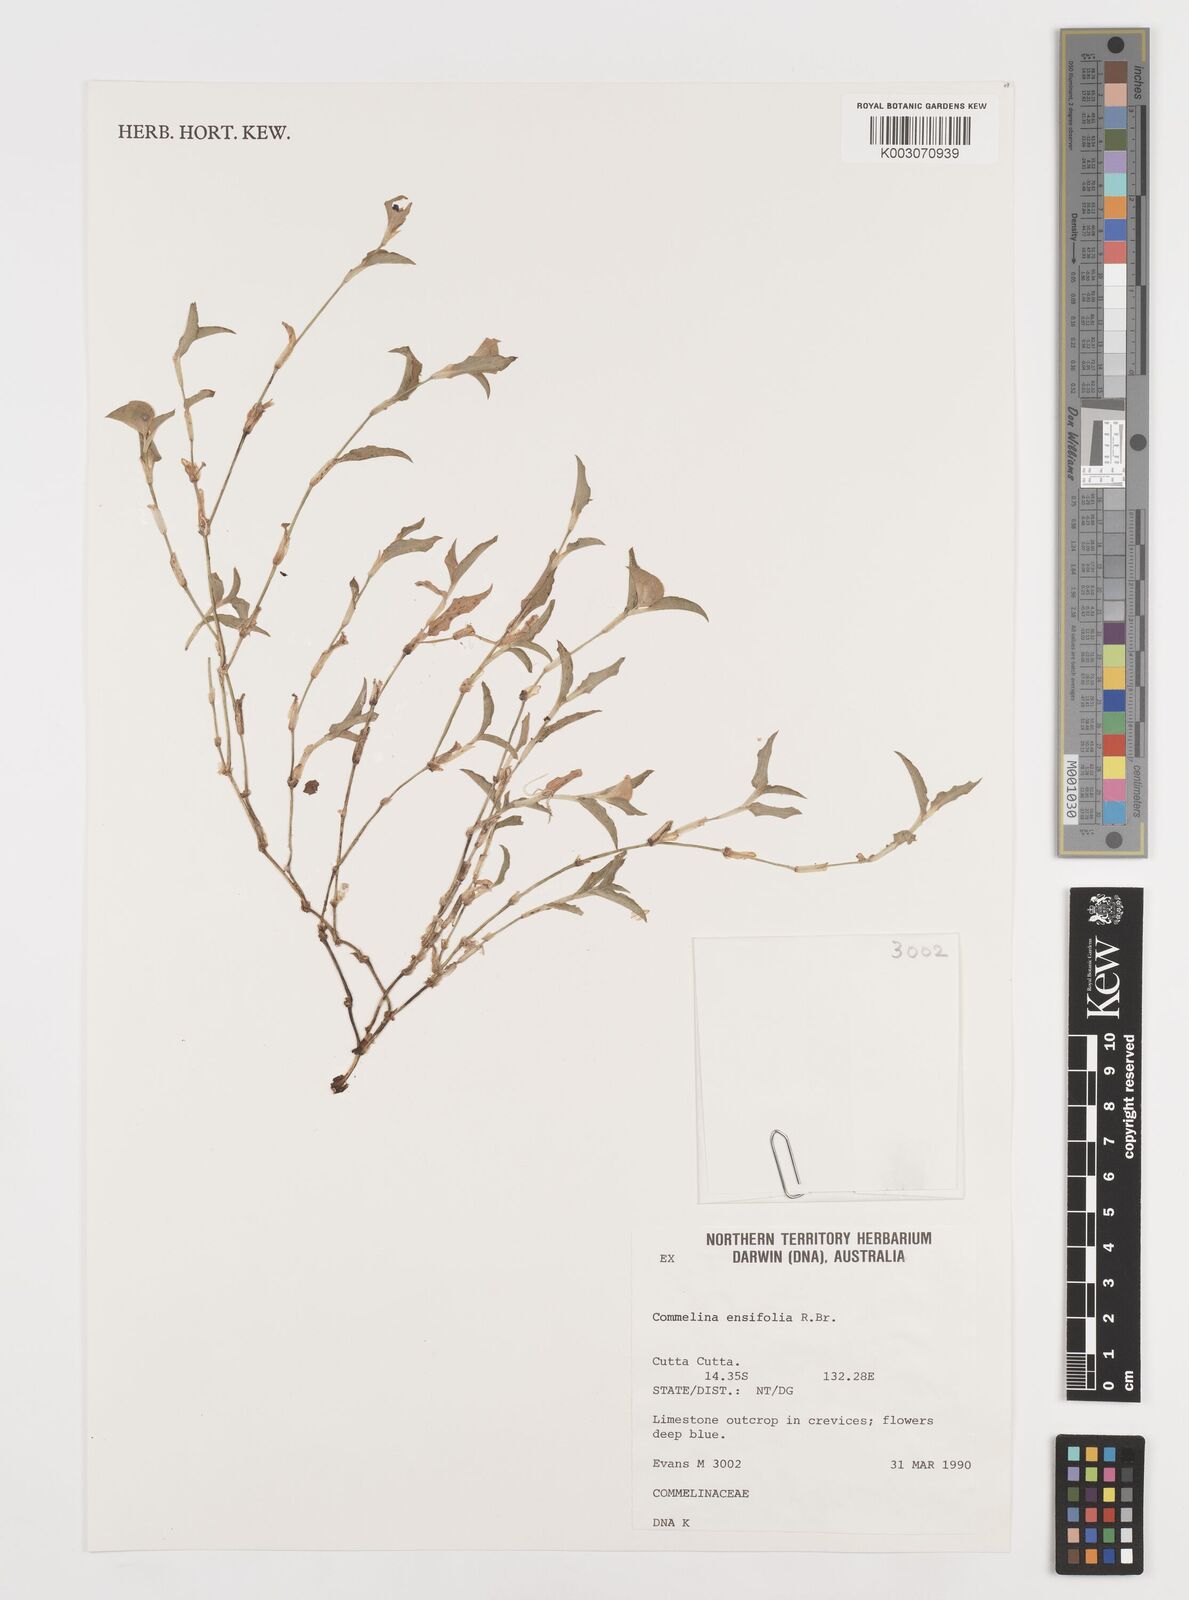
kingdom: Plantae
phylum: Tracheophyta
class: Liliopsida
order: Commelinales
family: Commelinaceae
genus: Commelina
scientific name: Commelina ensifolia
